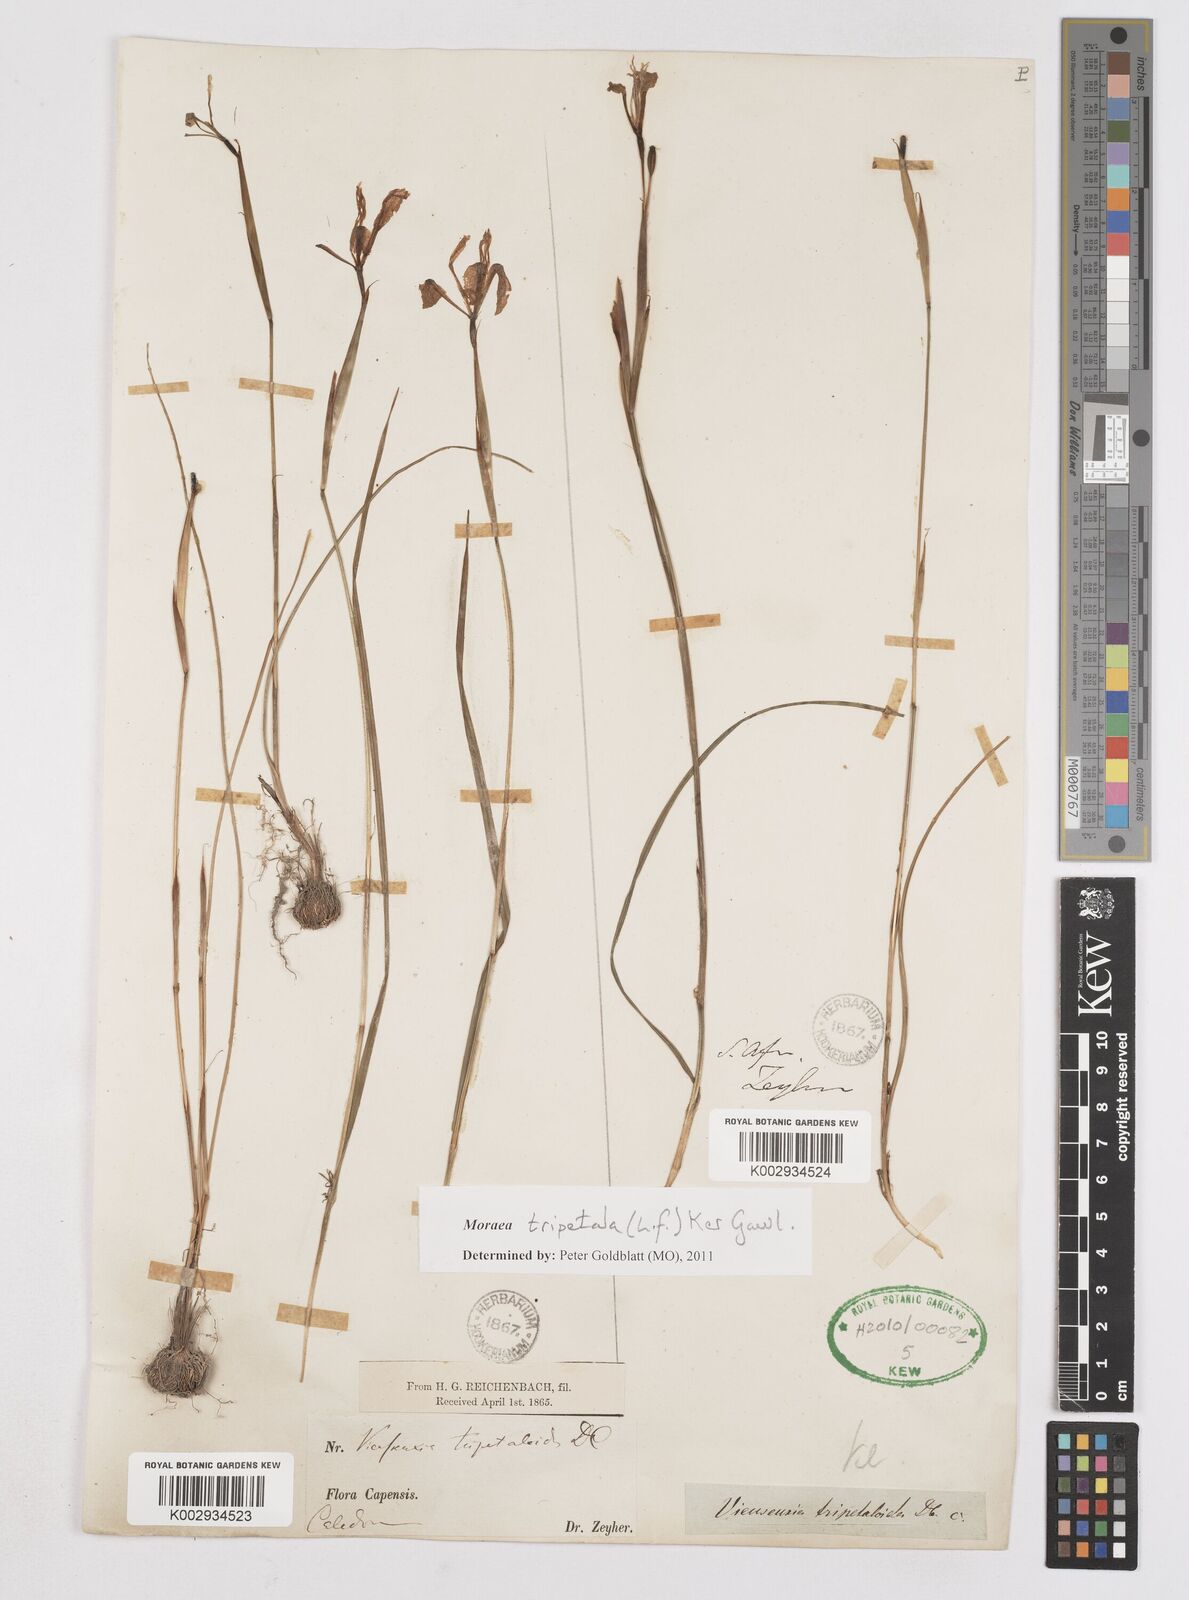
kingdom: Plantae
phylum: Tracheophyta
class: Liliopsida
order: Asparagales
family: Iridaceae
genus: Moraea
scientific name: Moraea tripetala
